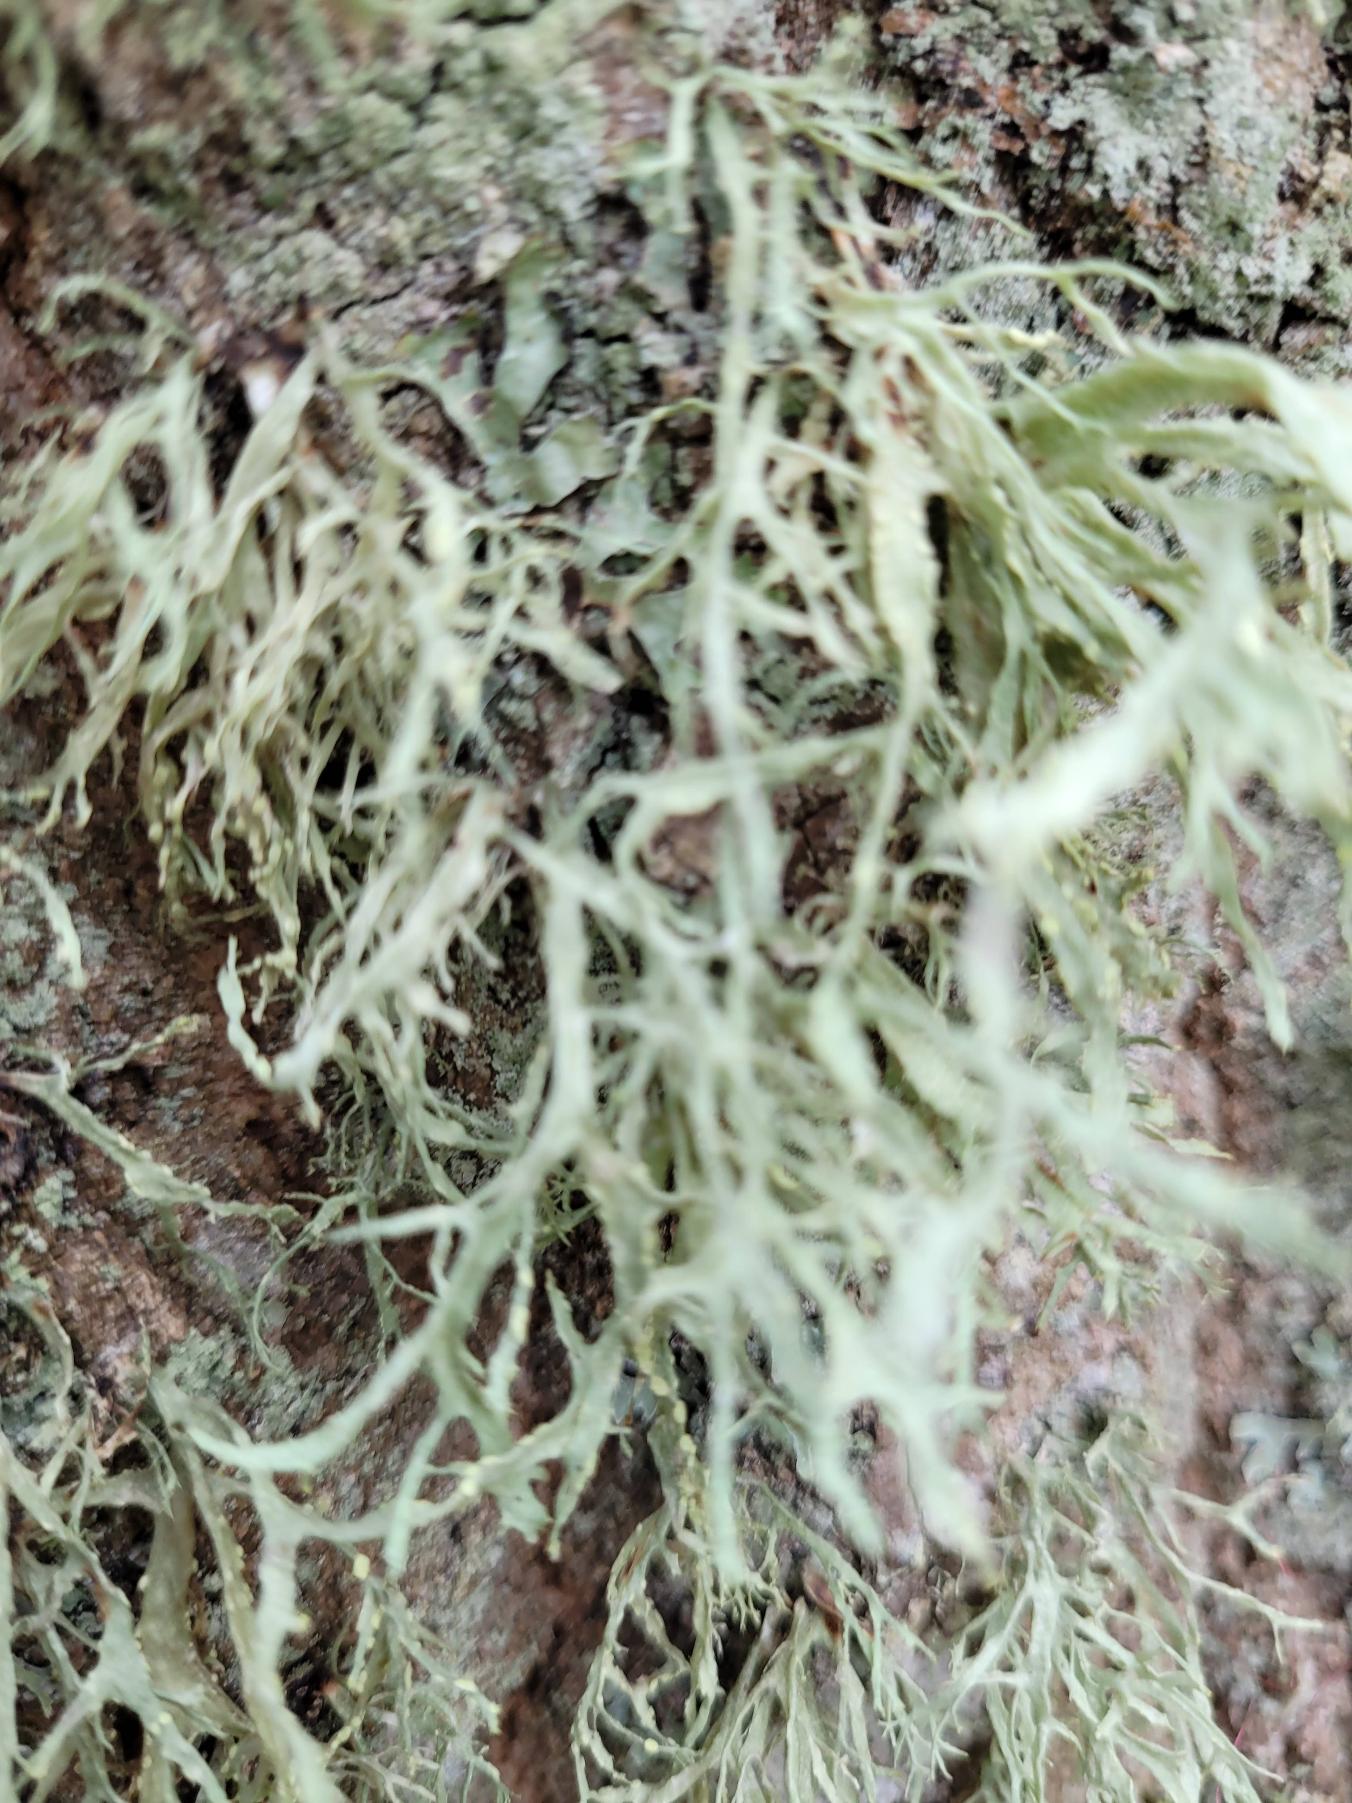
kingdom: Fungi
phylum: Ascomycota
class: Lecanoromycetes
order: Lecanorales
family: Ramalinaceae
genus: Ramalina
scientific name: Ramalina farinacea
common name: Melet grenlav
